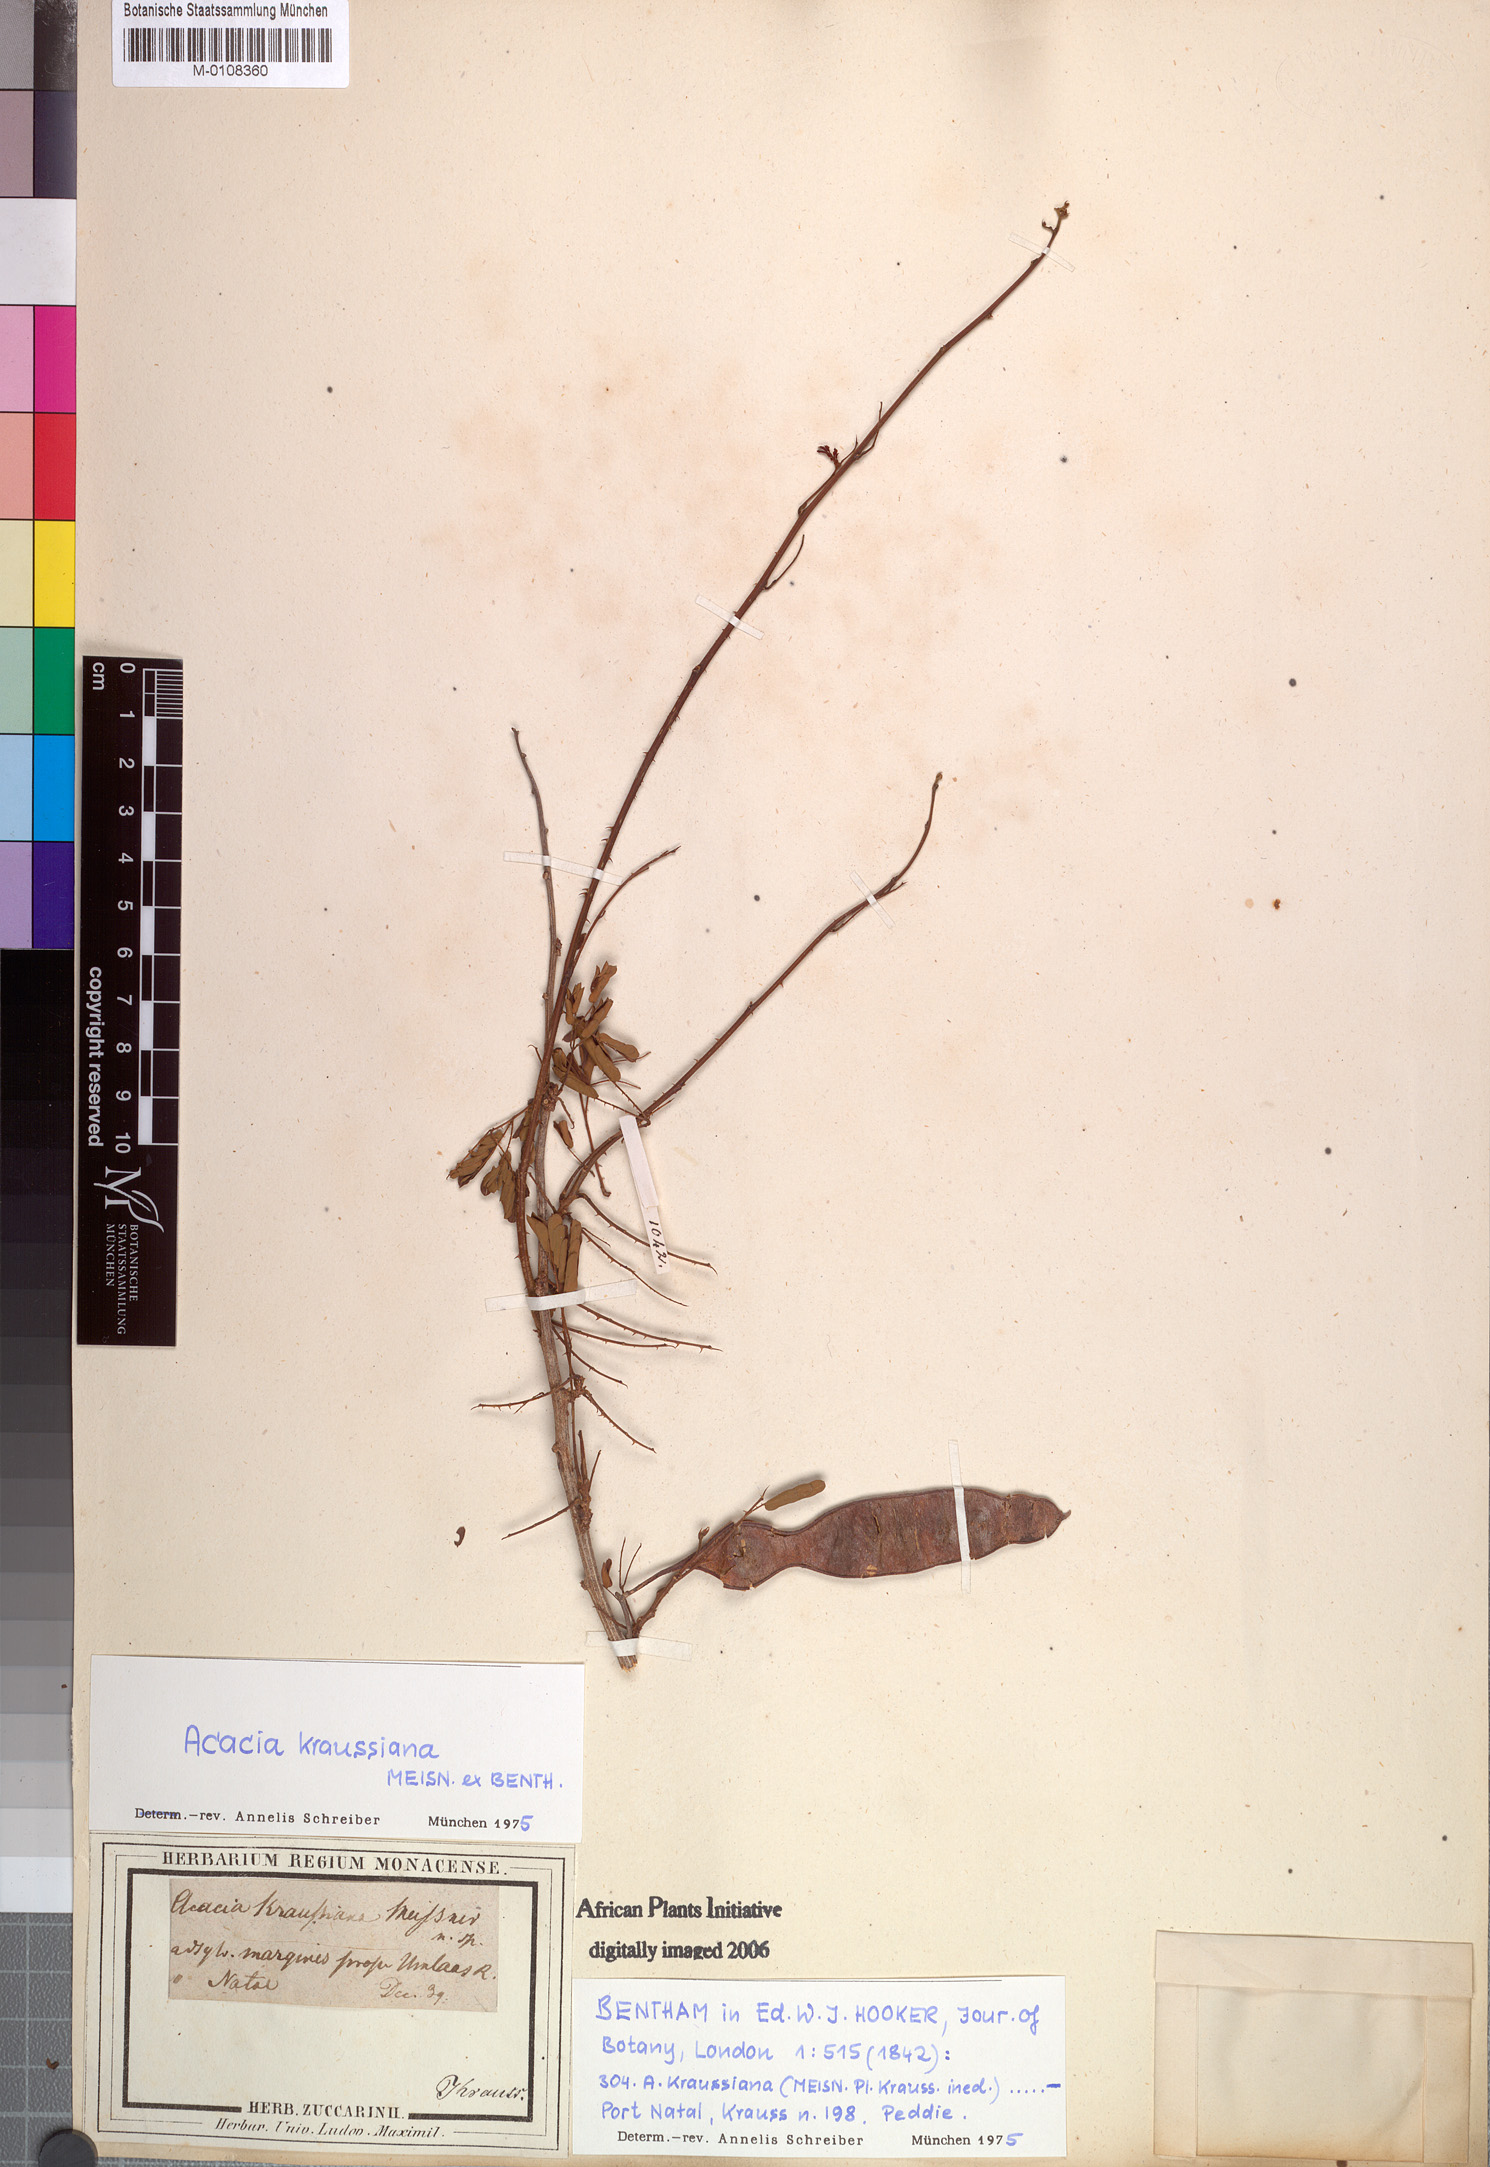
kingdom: Plantae
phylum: Tracheophyta
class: Magnoliopsida
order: Fabales
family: Fabaceae
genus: Vachellia
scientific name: Vachellia nilotica
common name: Arabic gumtree
